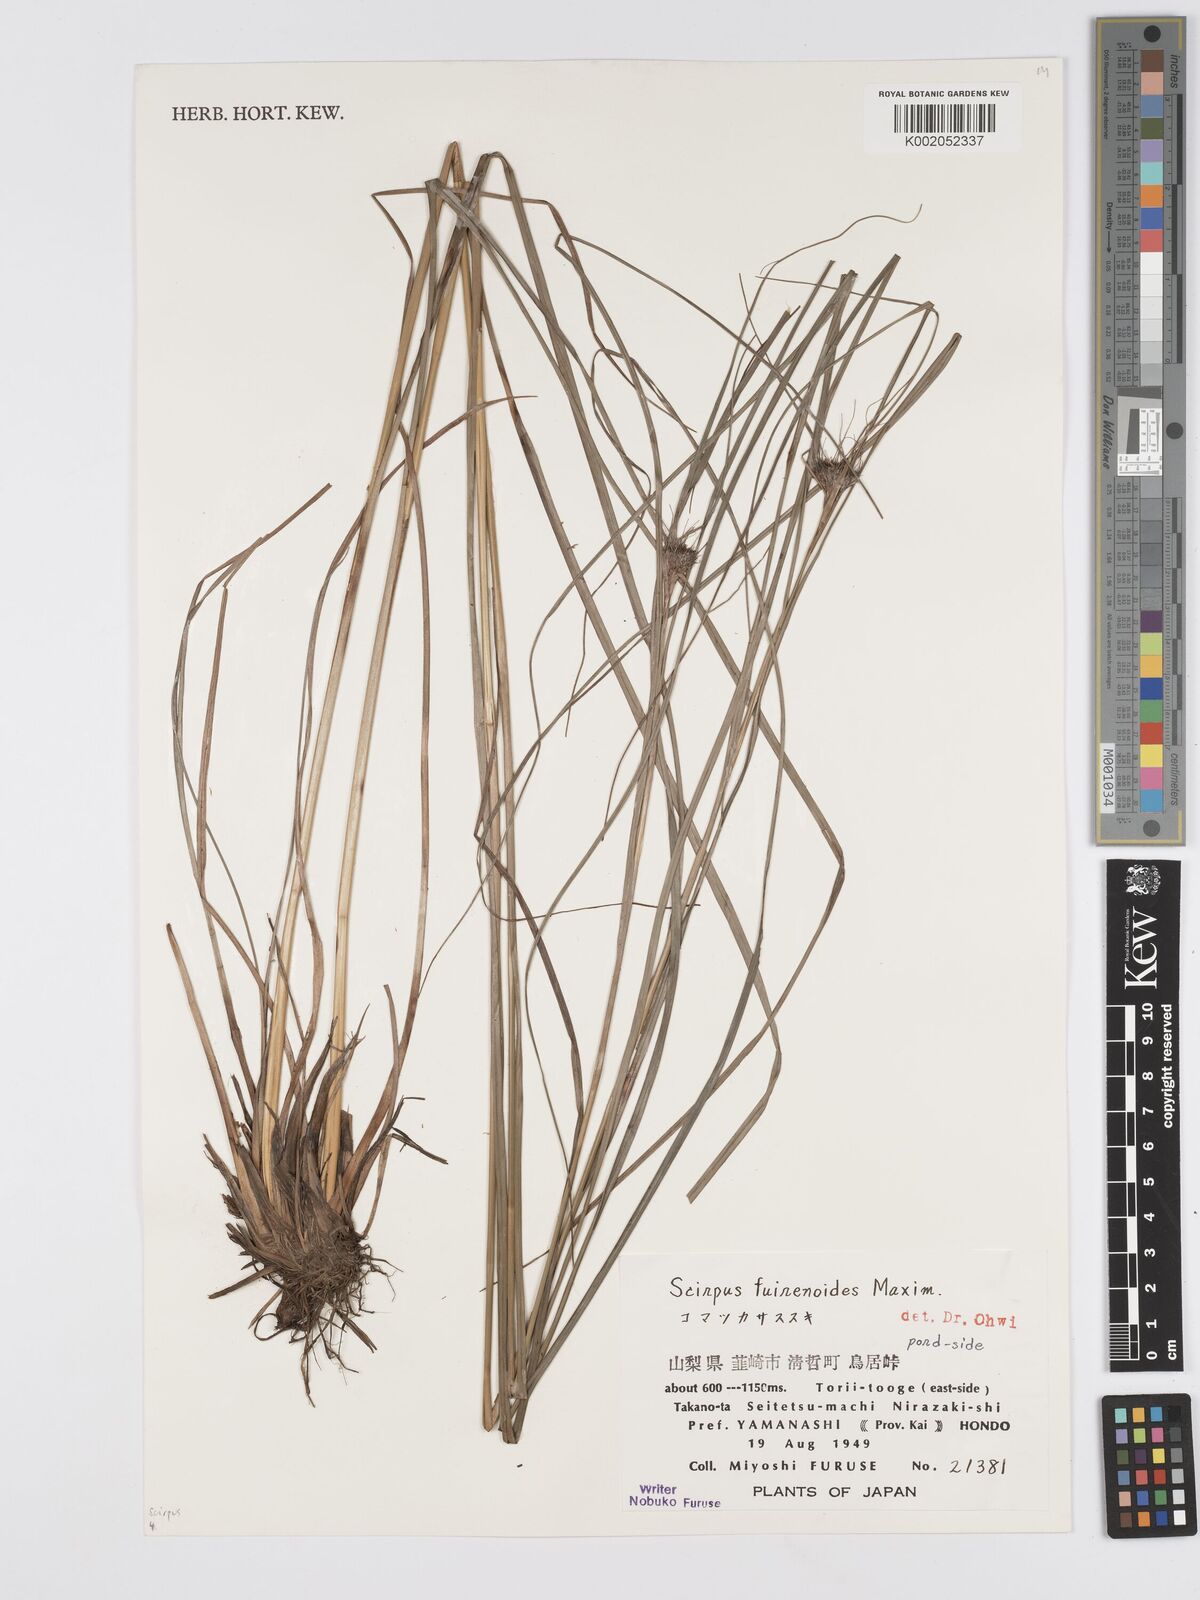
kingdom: Plantae
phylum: Tracheophyta
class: Liliopsida
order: Poales
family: Cyperaceae
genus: Scirpus
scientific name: Scirpus fuirenoides
